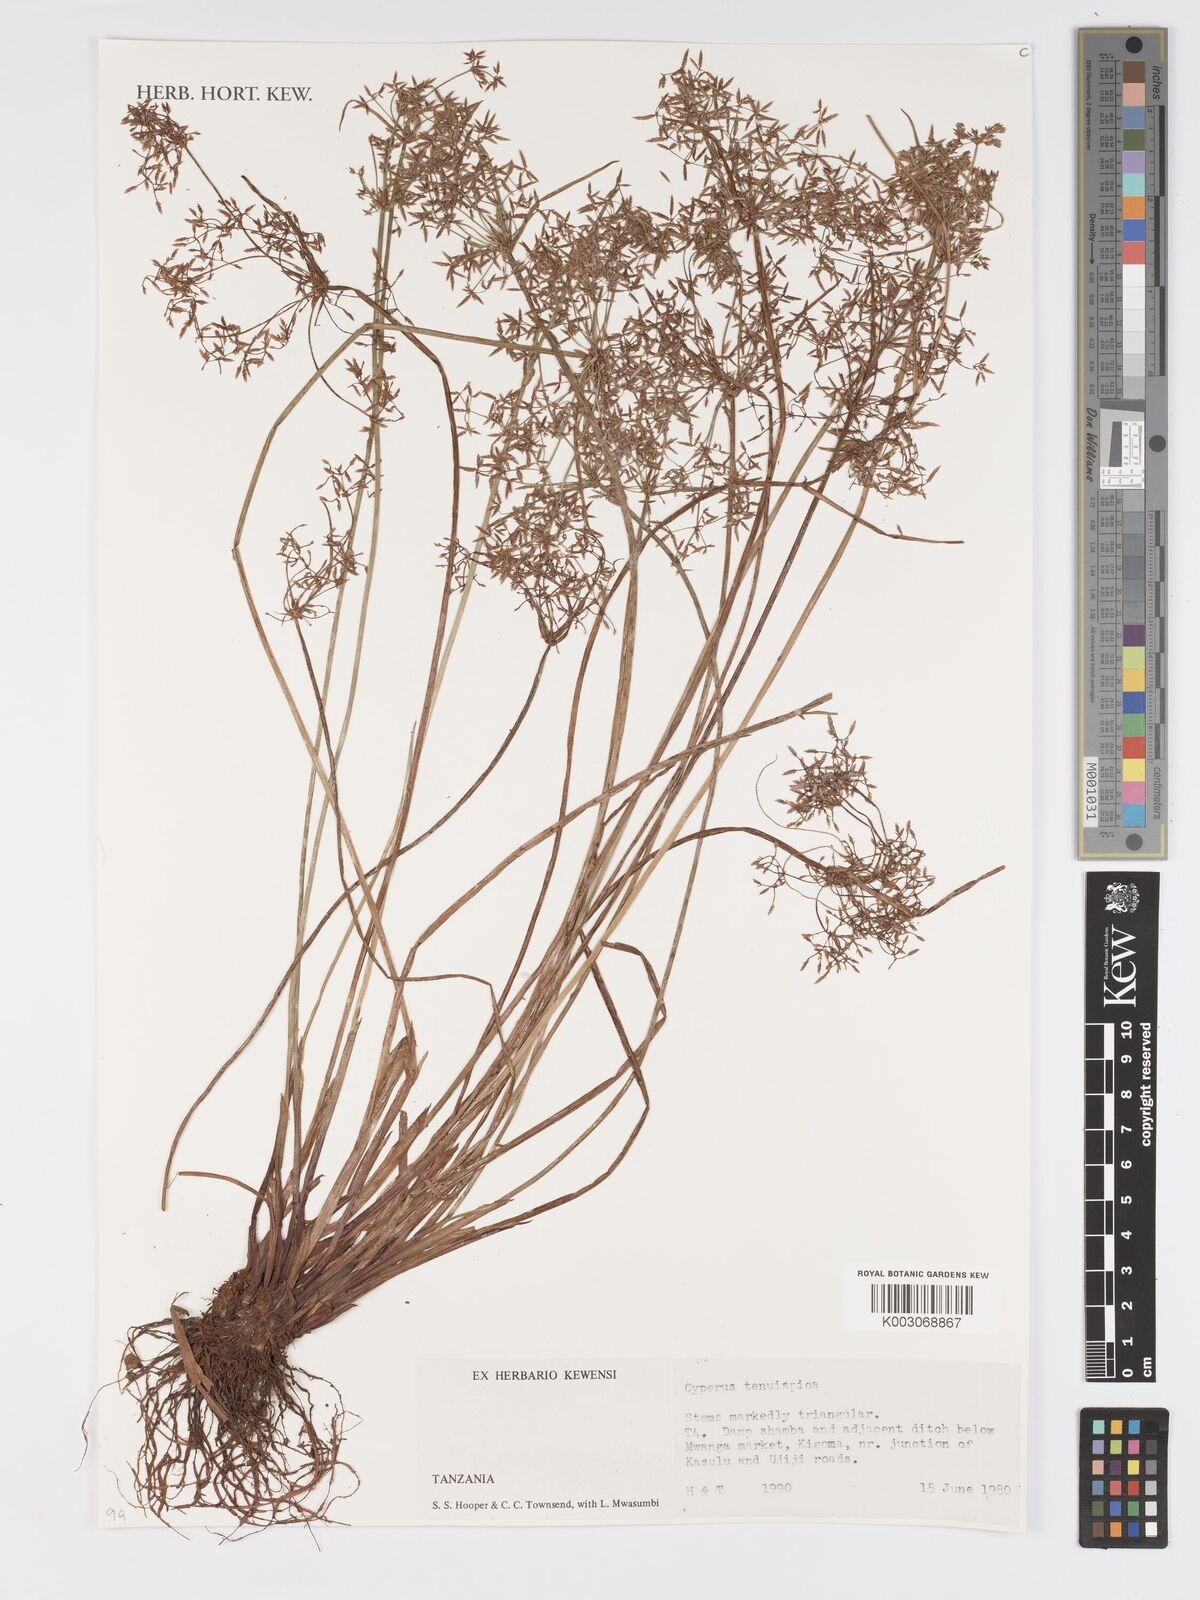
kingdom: Plantae
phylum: Tracheophyta
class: Liliopsida
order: Poales
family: Cyperaceae
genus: Cyperus
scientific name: Cyperus tenuispica
